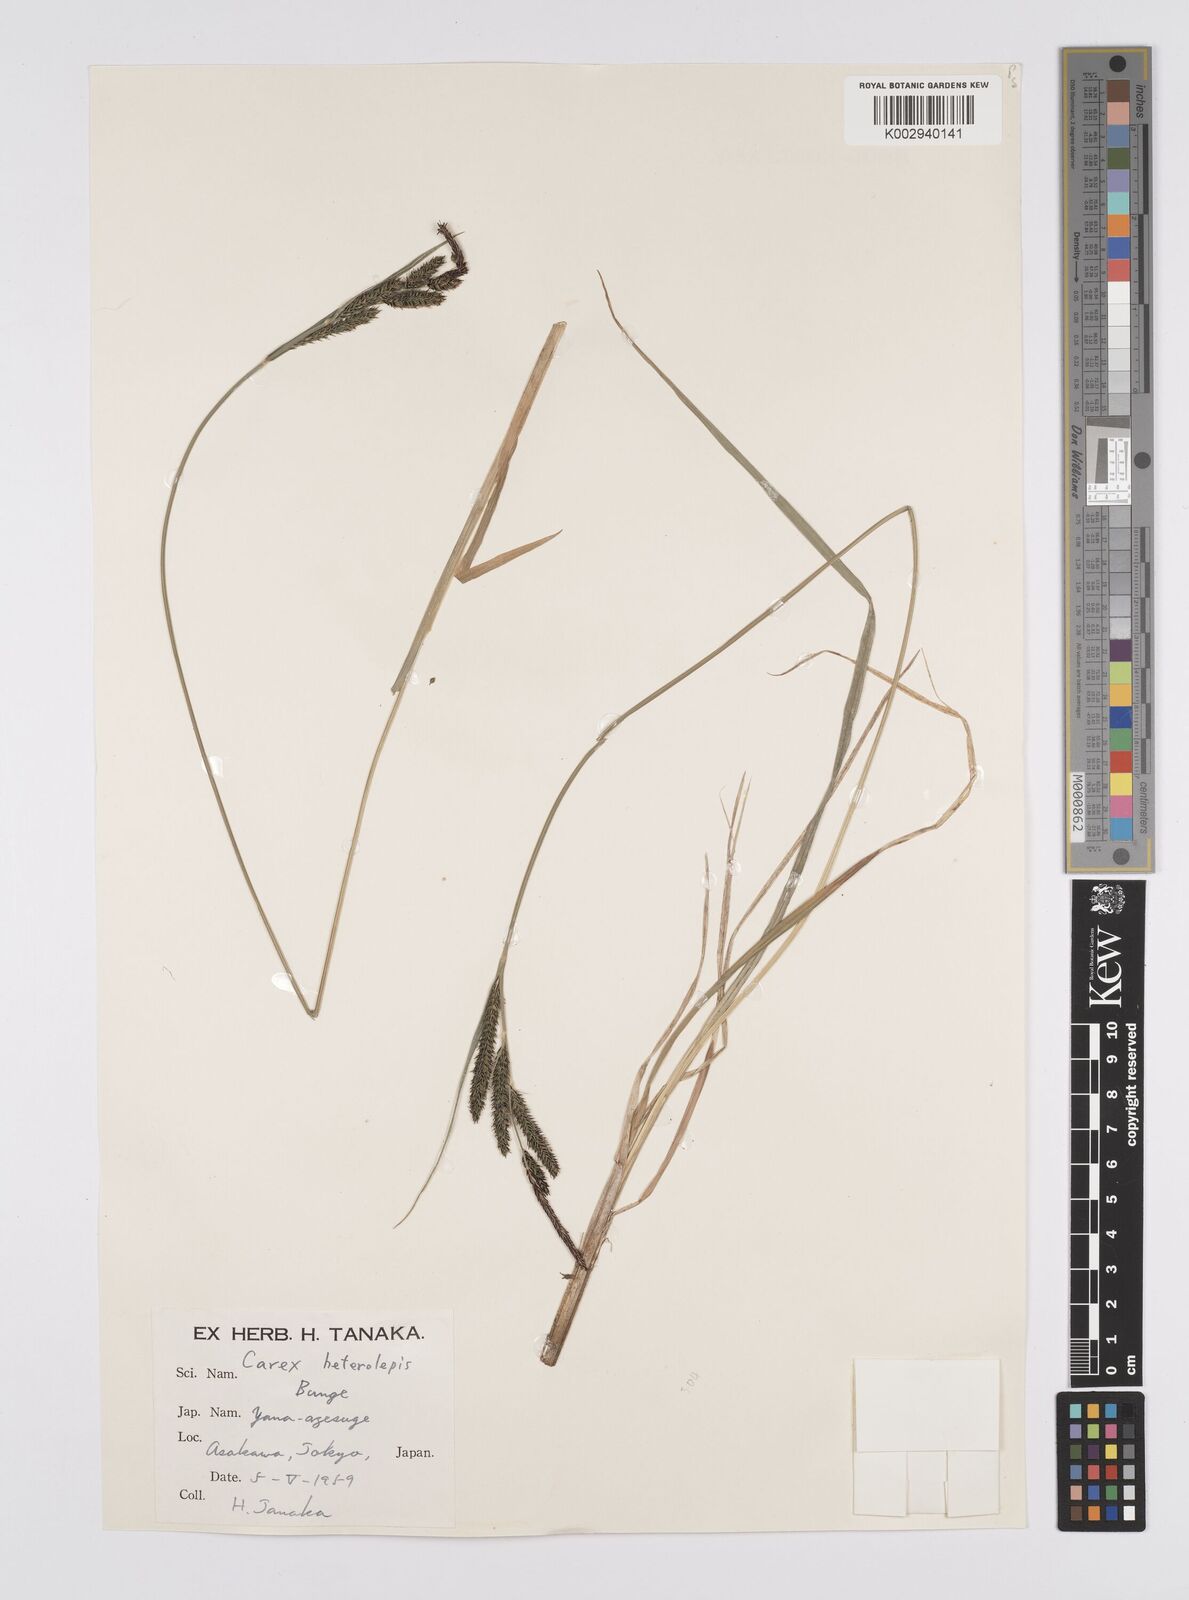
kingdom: Plantae
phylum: Tracheophyta
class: Liliopsida
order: Poales
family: Cyperaceae
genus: Carex
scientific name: Carex cruenta
